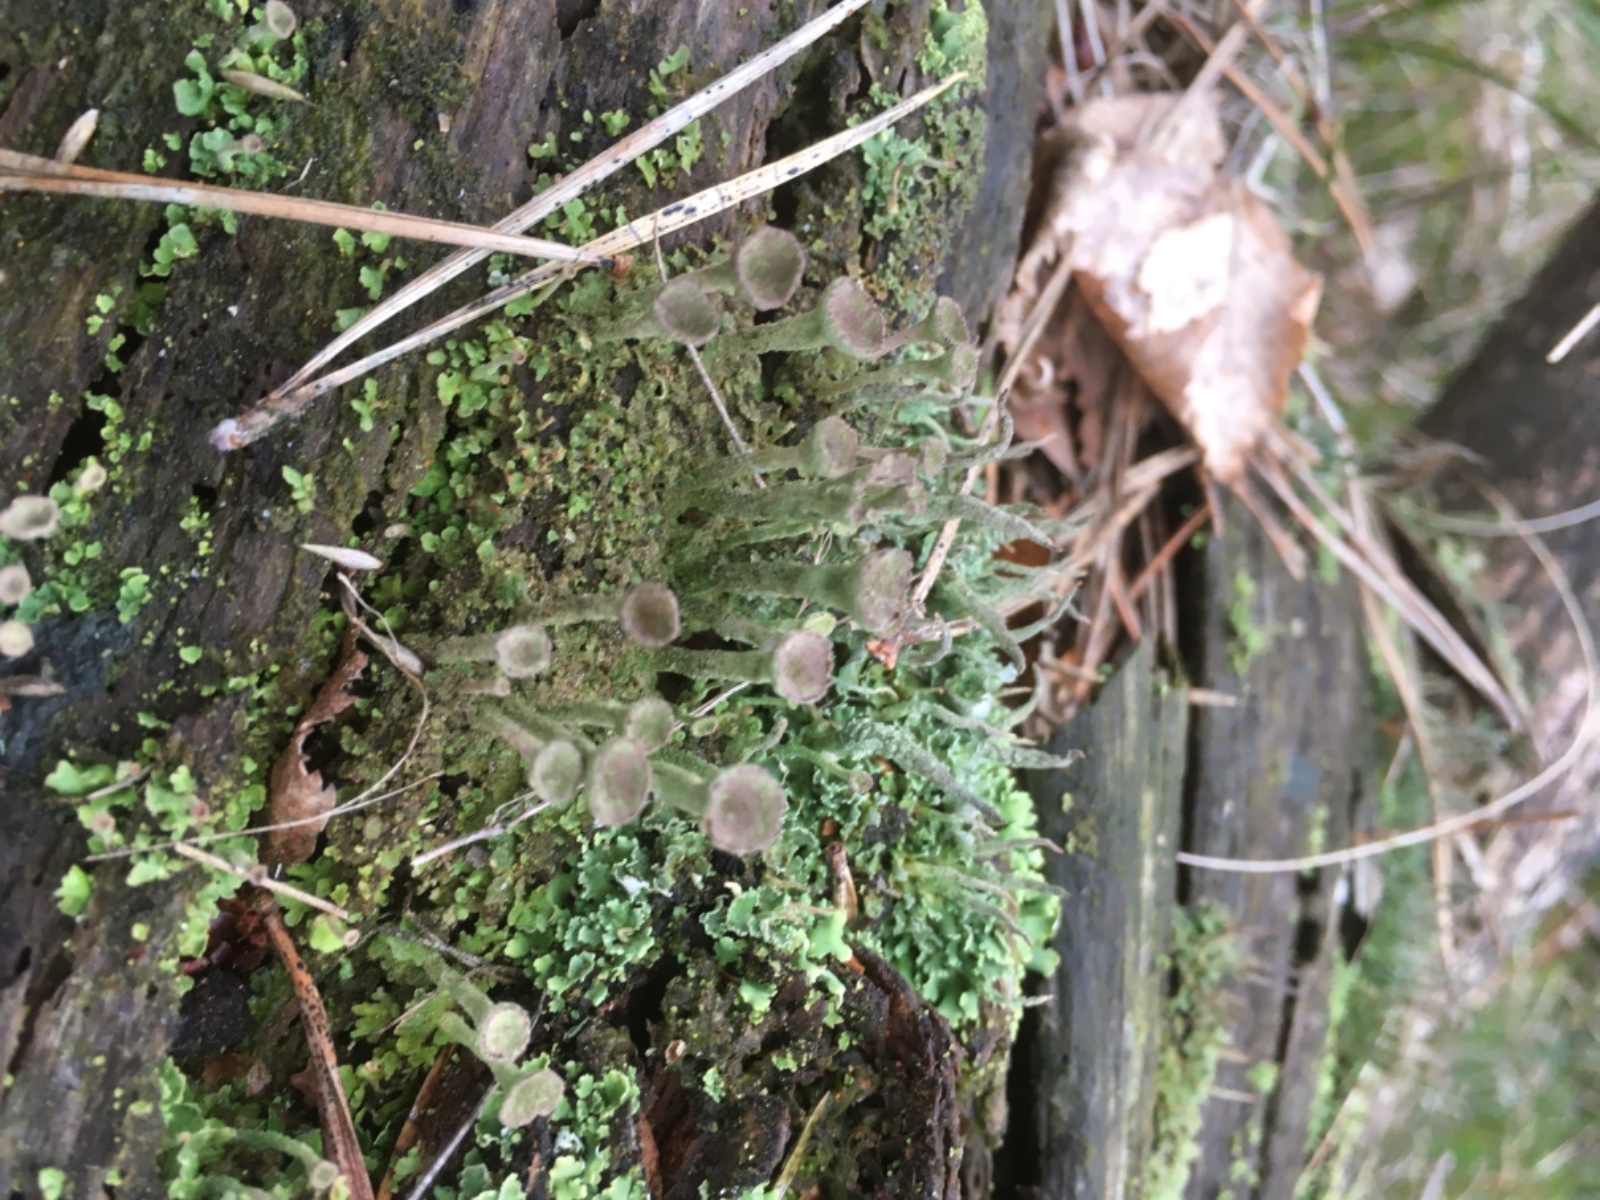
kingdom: Fungi
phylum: Ascomycota
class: Lecanoromycetes
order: Lecanorales
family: Cladoniaceae
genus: Cladonia
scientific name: Cladonia
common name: brungrøn bægerlav
